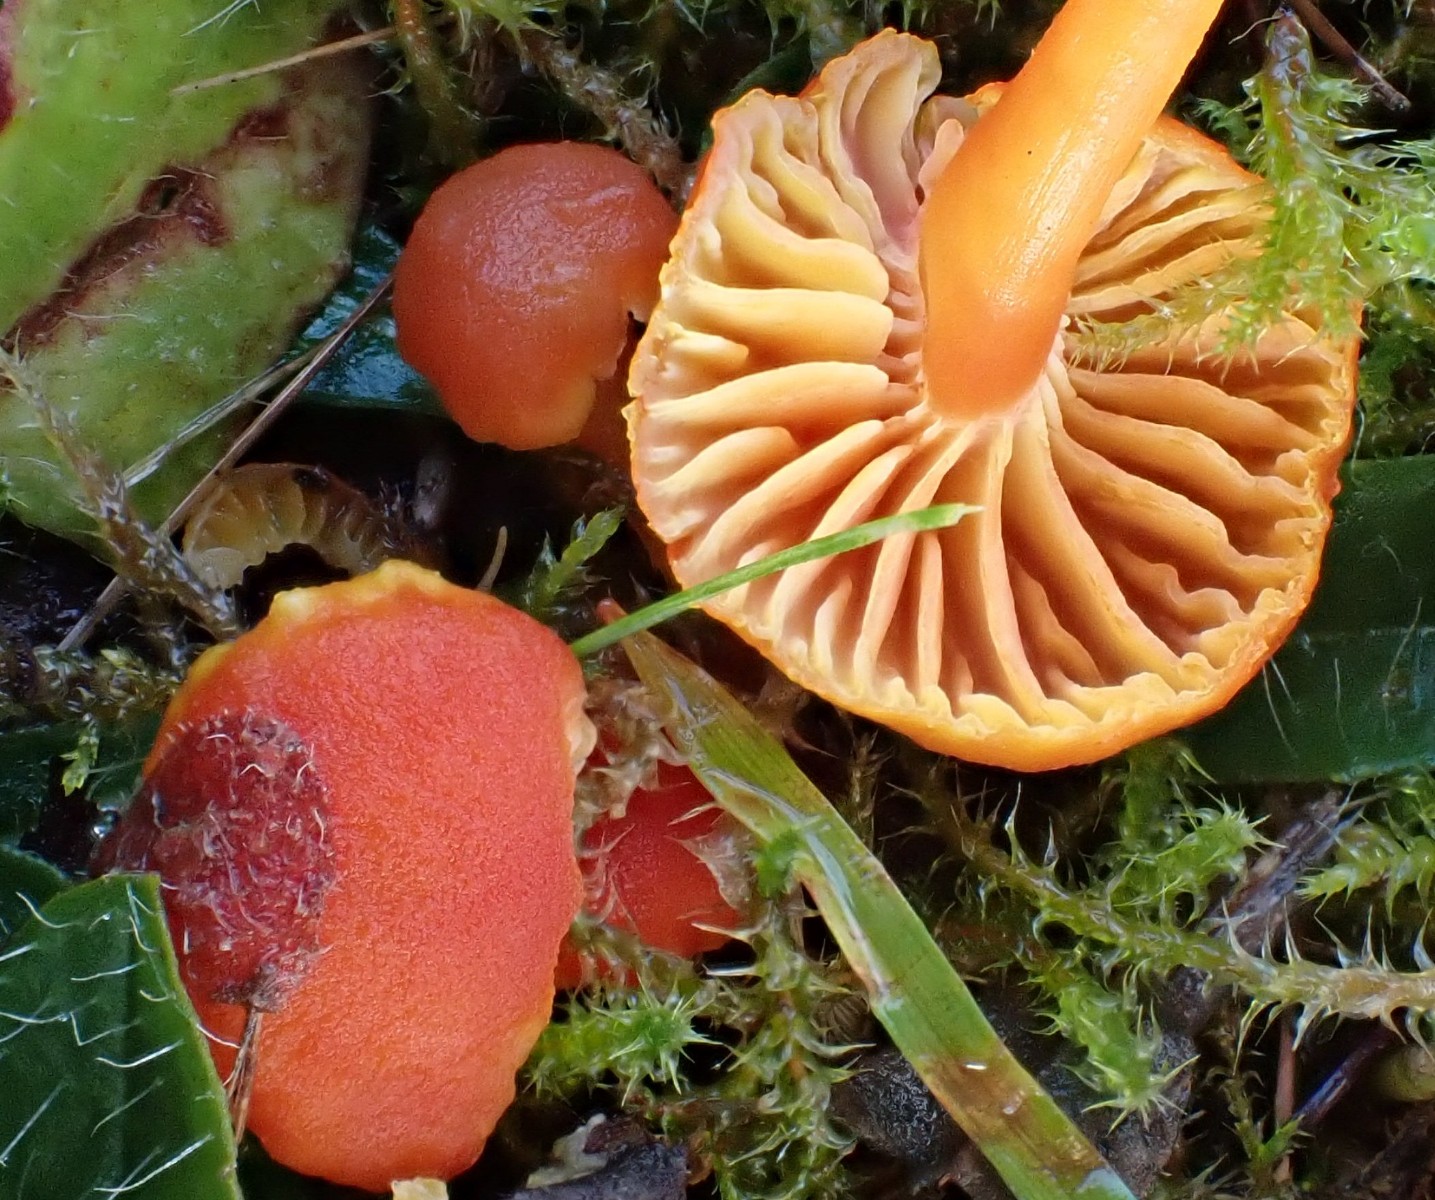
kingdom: Fungi
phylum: Basidiomycota
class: Agaricomycetes
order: Agaricales
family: Hygrophoraceae
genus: Hygrocybe
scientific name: Hygrocybe miniata
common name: mønje-vokshat
